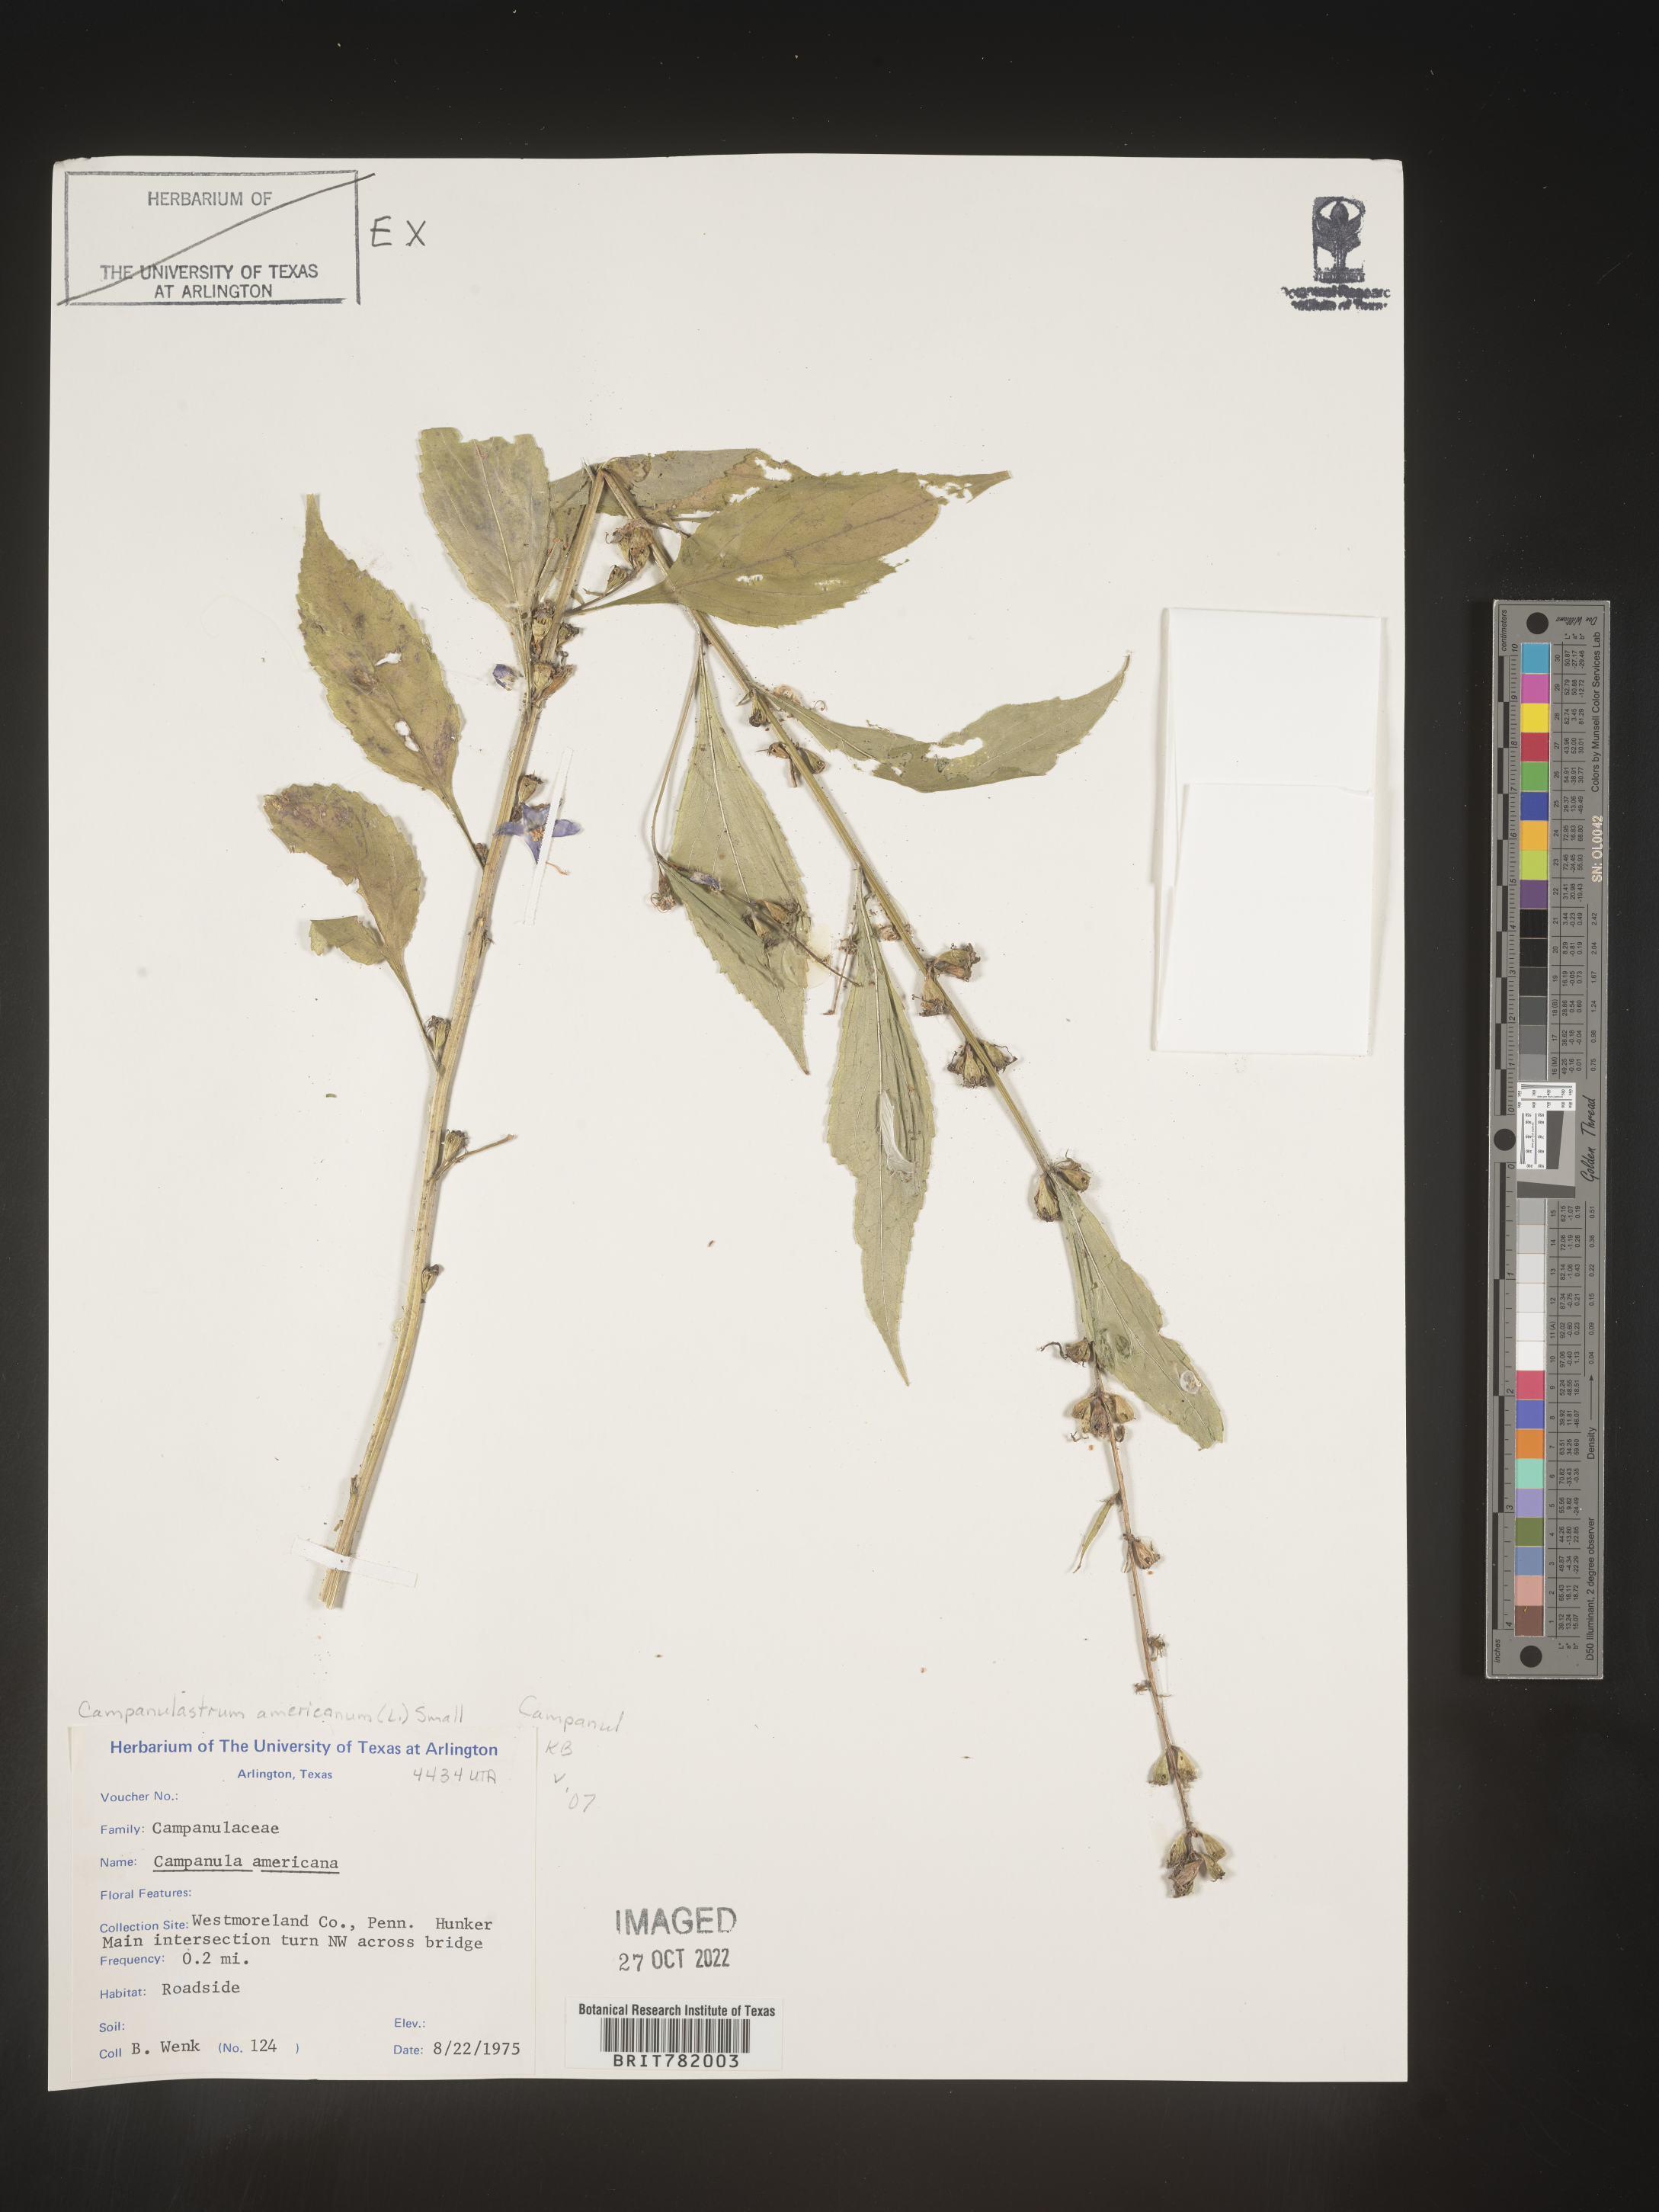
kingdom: Plantae
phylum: Tracheophyta
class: Magnoliopsida
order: Asterales
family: Campanulaceae
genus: Campanulastrum
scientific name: Campanulastrum
